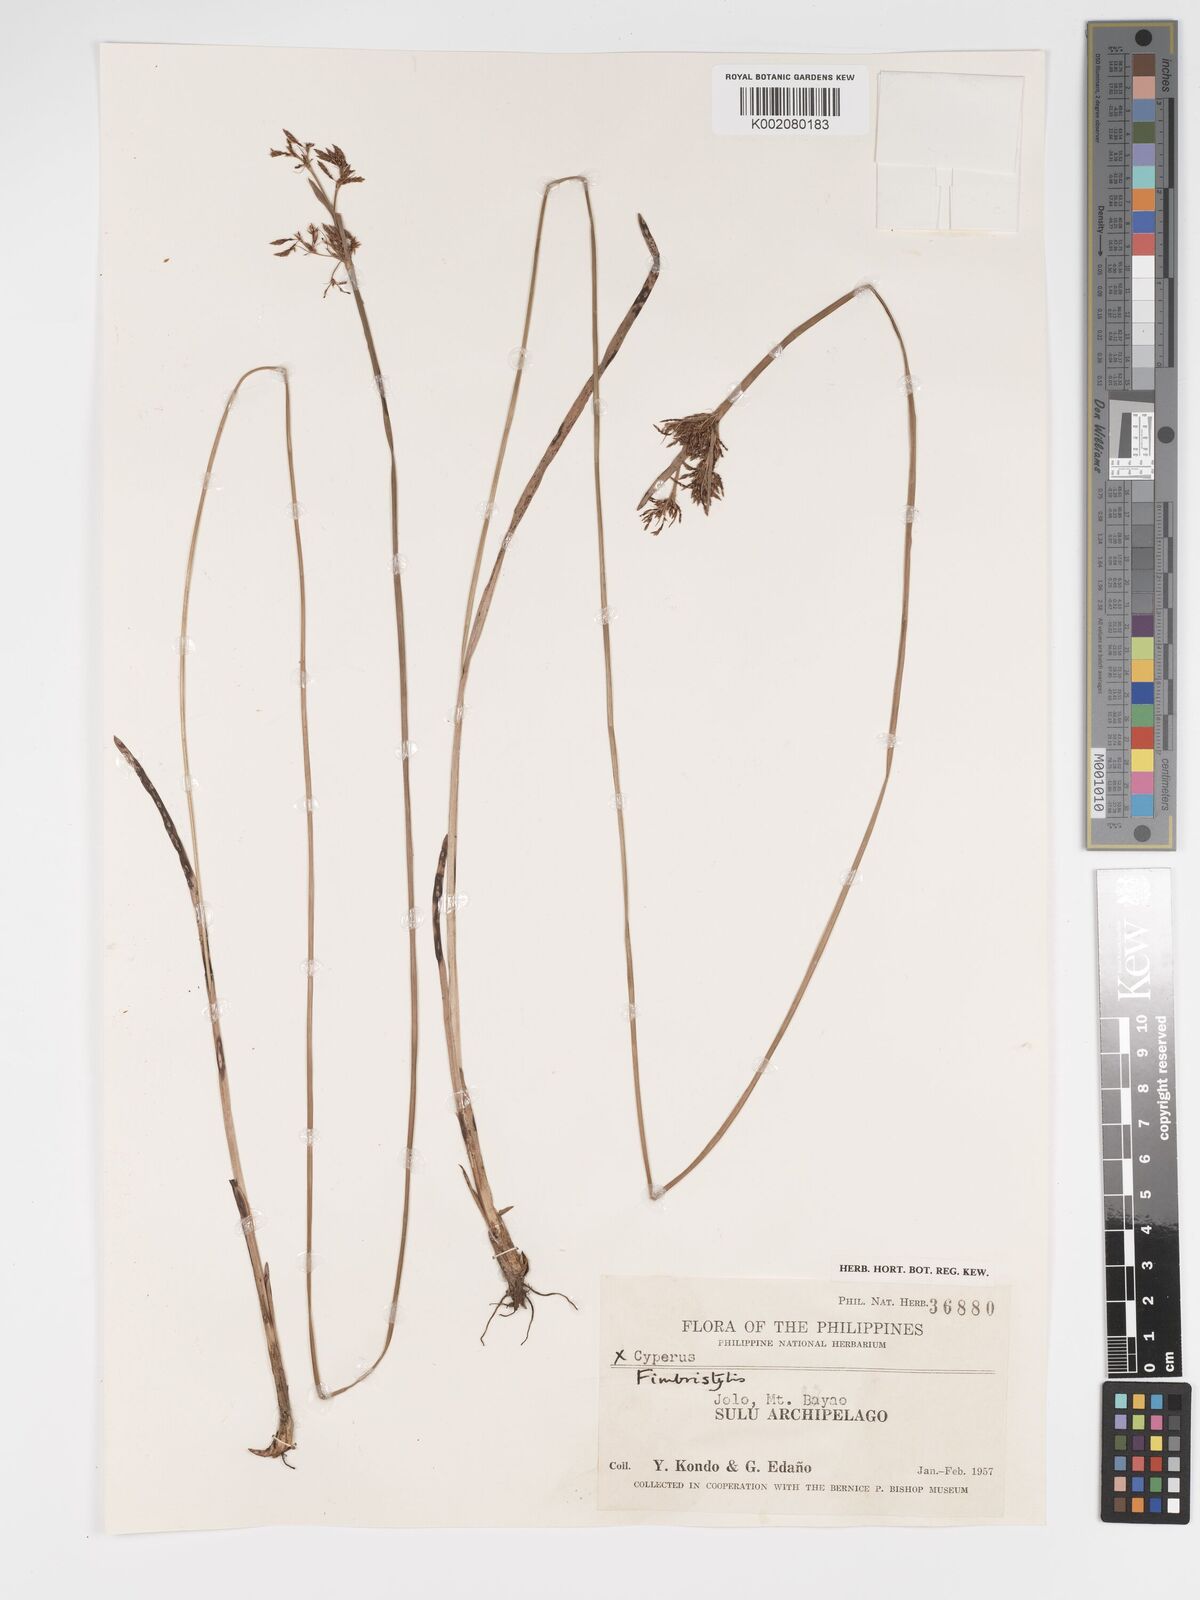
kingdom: Plantae
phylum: Tracheophyta
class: Liliopsida
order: Poales
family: Cyperaceae
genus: Fimbristylis
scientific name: Fimbristylis
